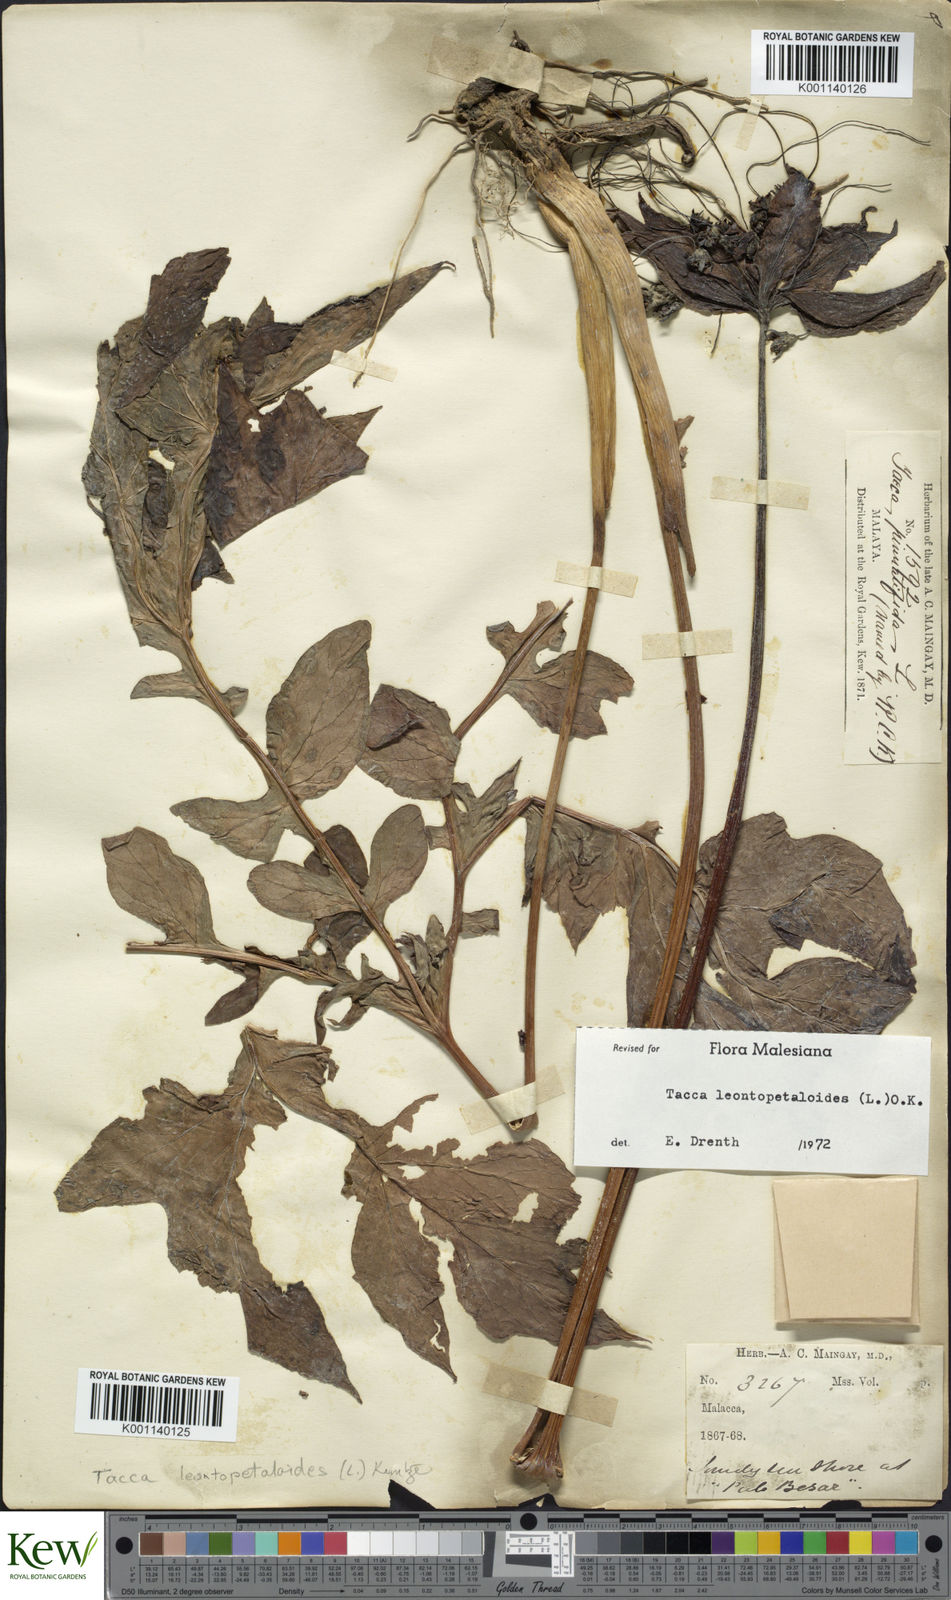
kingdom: Plantae
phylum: Tracheophyta
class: Liliopsida
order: Dioscoreales
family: Dioscoreaceae
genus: Tacca
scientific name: Tacca leontopetaloides
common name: Arrowroot
